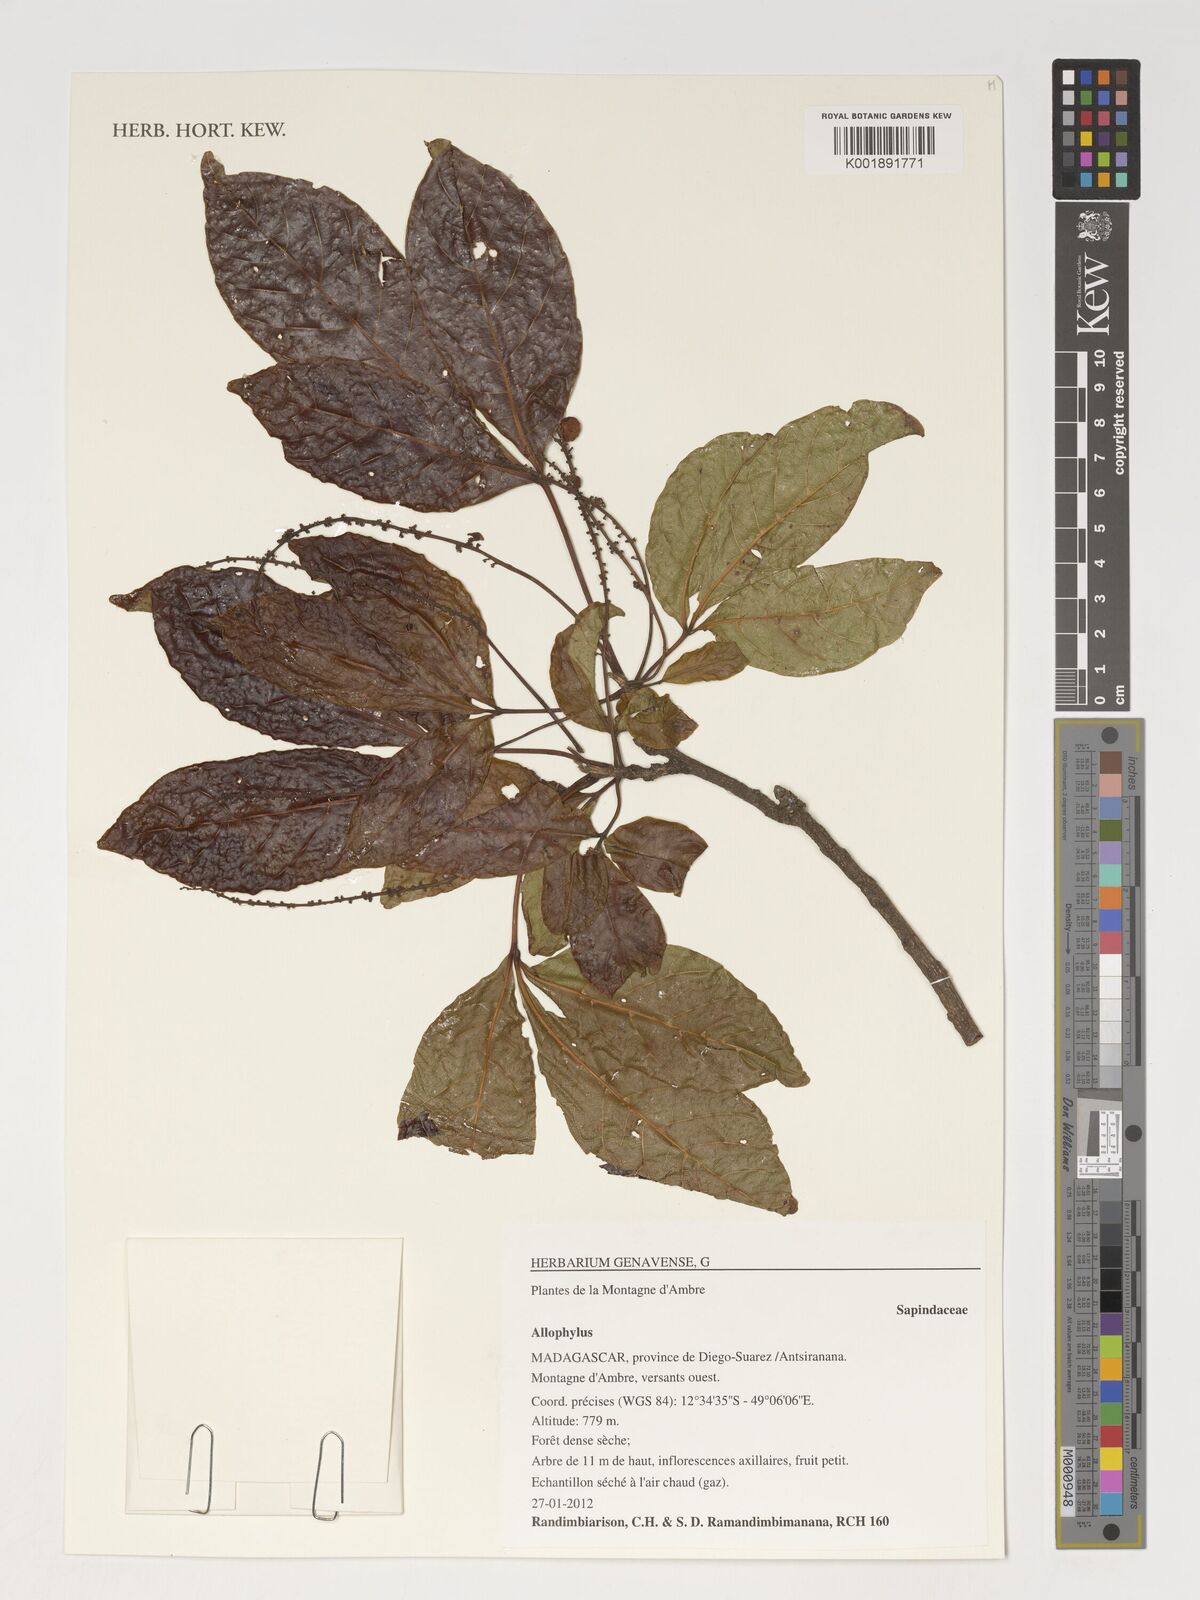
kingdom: Plantae
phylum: Tracheophyta
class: Magnoliopsida
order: Sapindales
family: Sapindaceae
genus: Allophylus
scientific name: Allophylus
